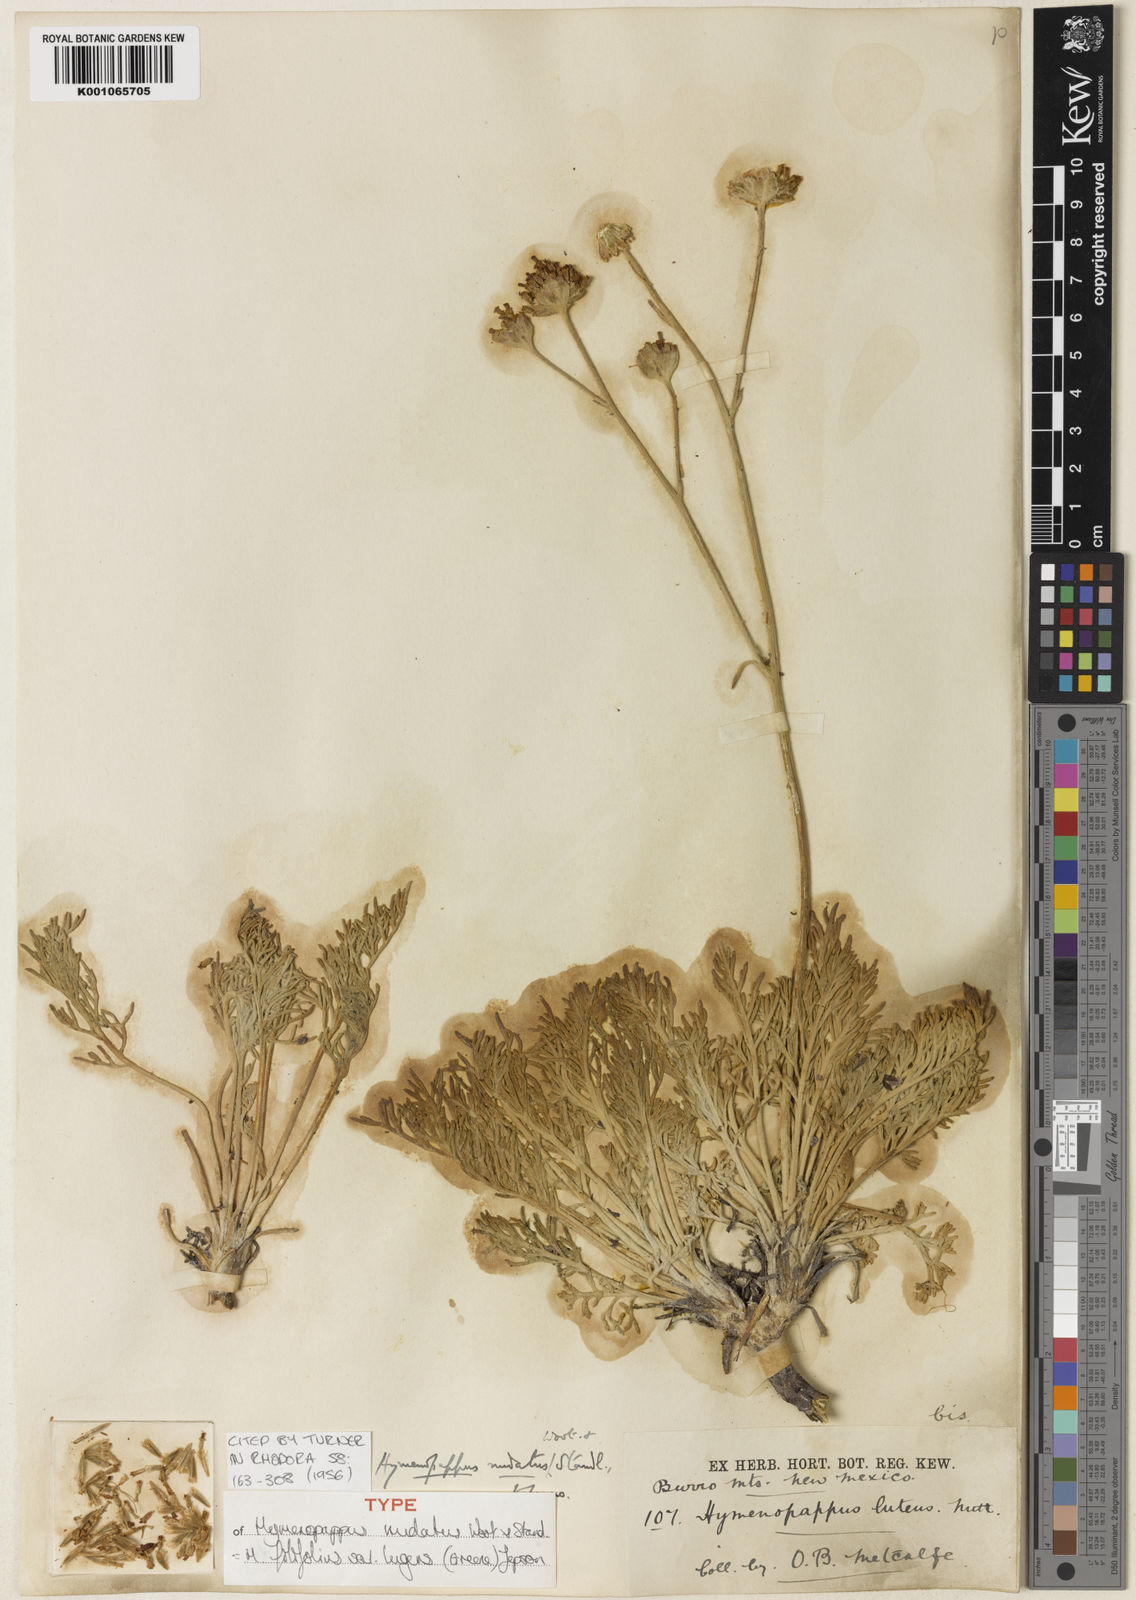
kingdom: Plantae
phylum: Tracheophyta
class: Magnoliopsida
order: Asterales
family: Asteraceae
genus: Hymenopappus
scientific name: Hymenopappus filifolius
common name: Columbia cutleaf
